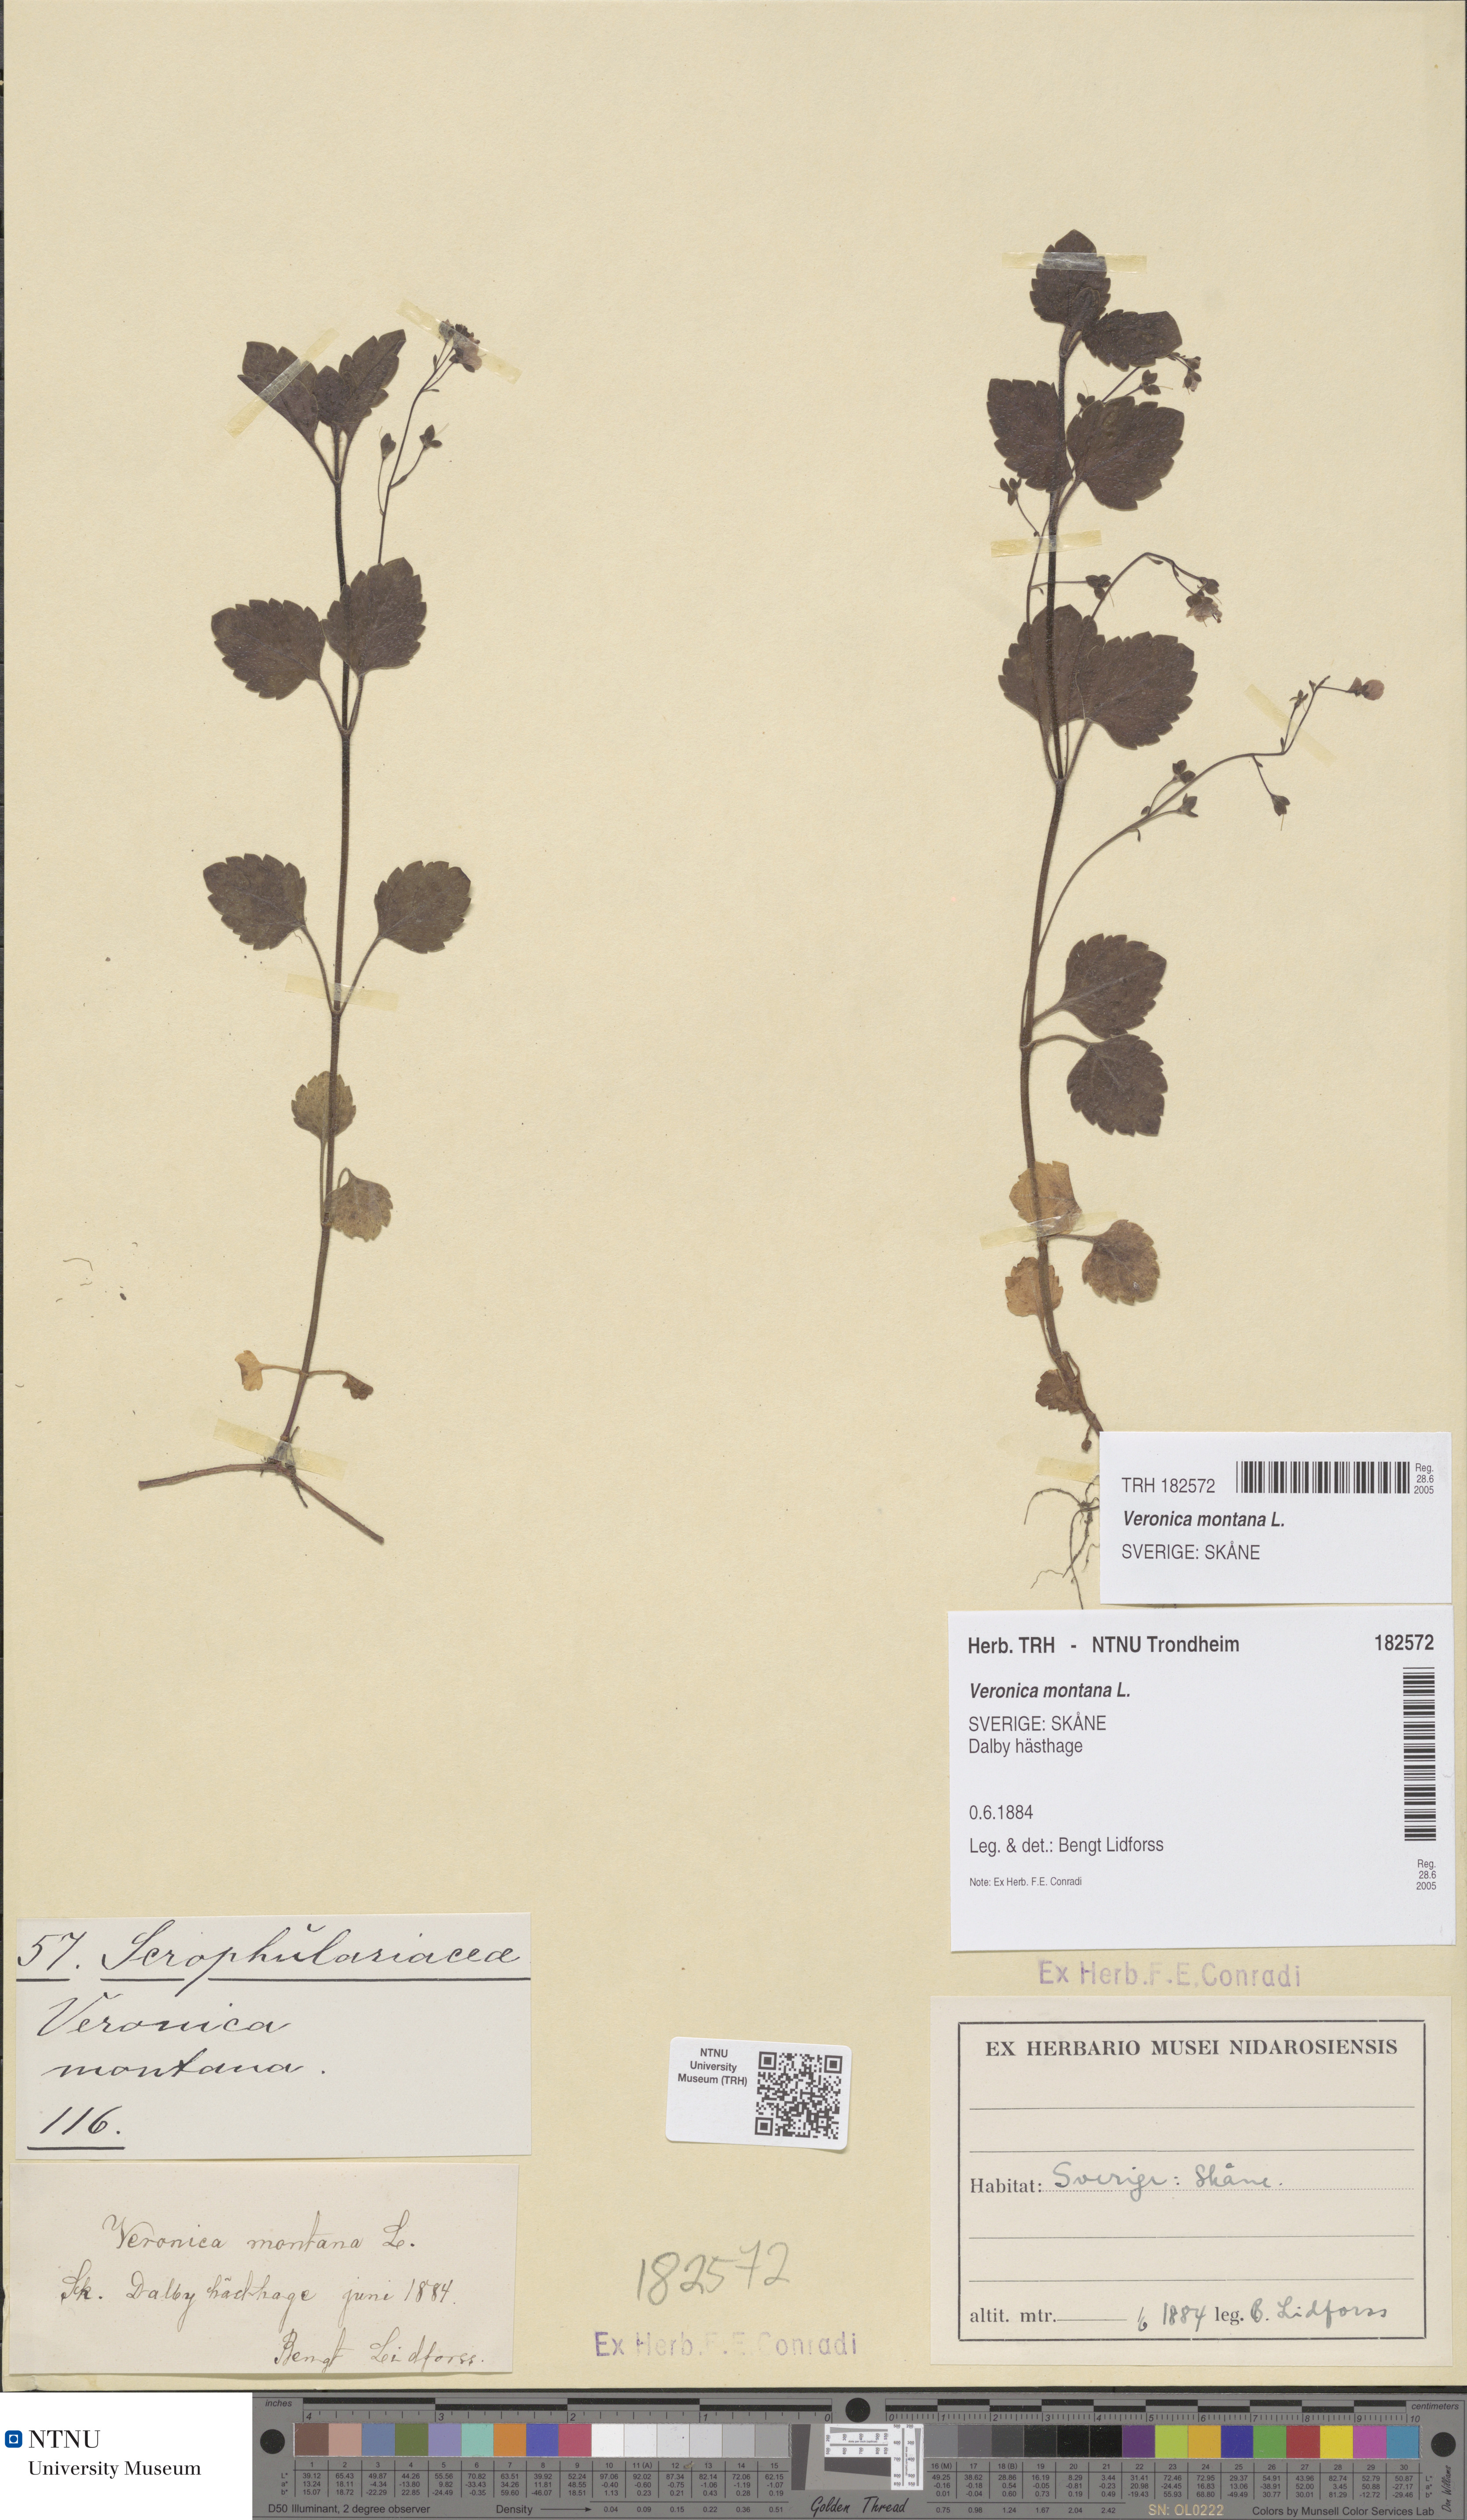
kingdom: Plantae
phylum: Tracheophyta
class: Magnoliopsida
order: Lamiales
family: Plantaginaceae
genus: Veronica
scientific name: Veronica montana
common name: Wood speedwell
